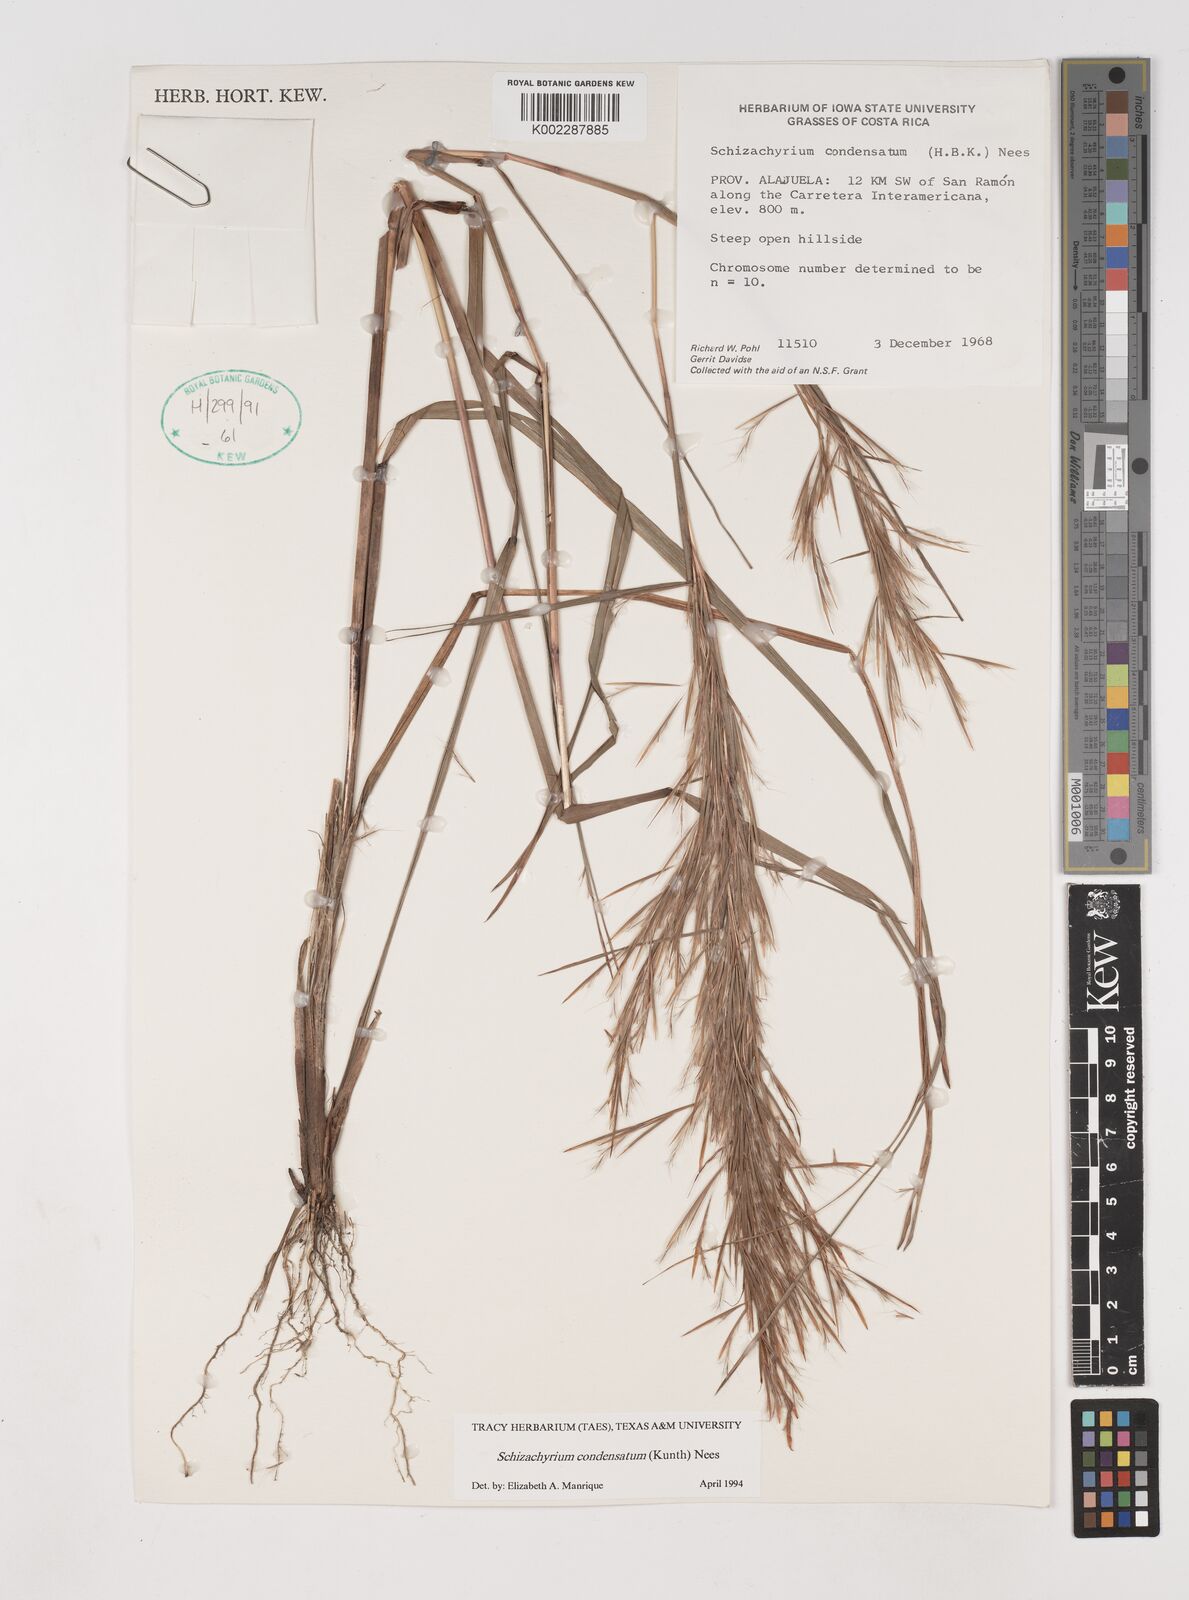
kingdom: Plantae
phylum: Tracheophyta
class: Liliopsida
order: Poales
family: Poaceae
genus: Schizachyrium
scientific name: Schizachyrium condensatum
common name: Bush beardgrass
